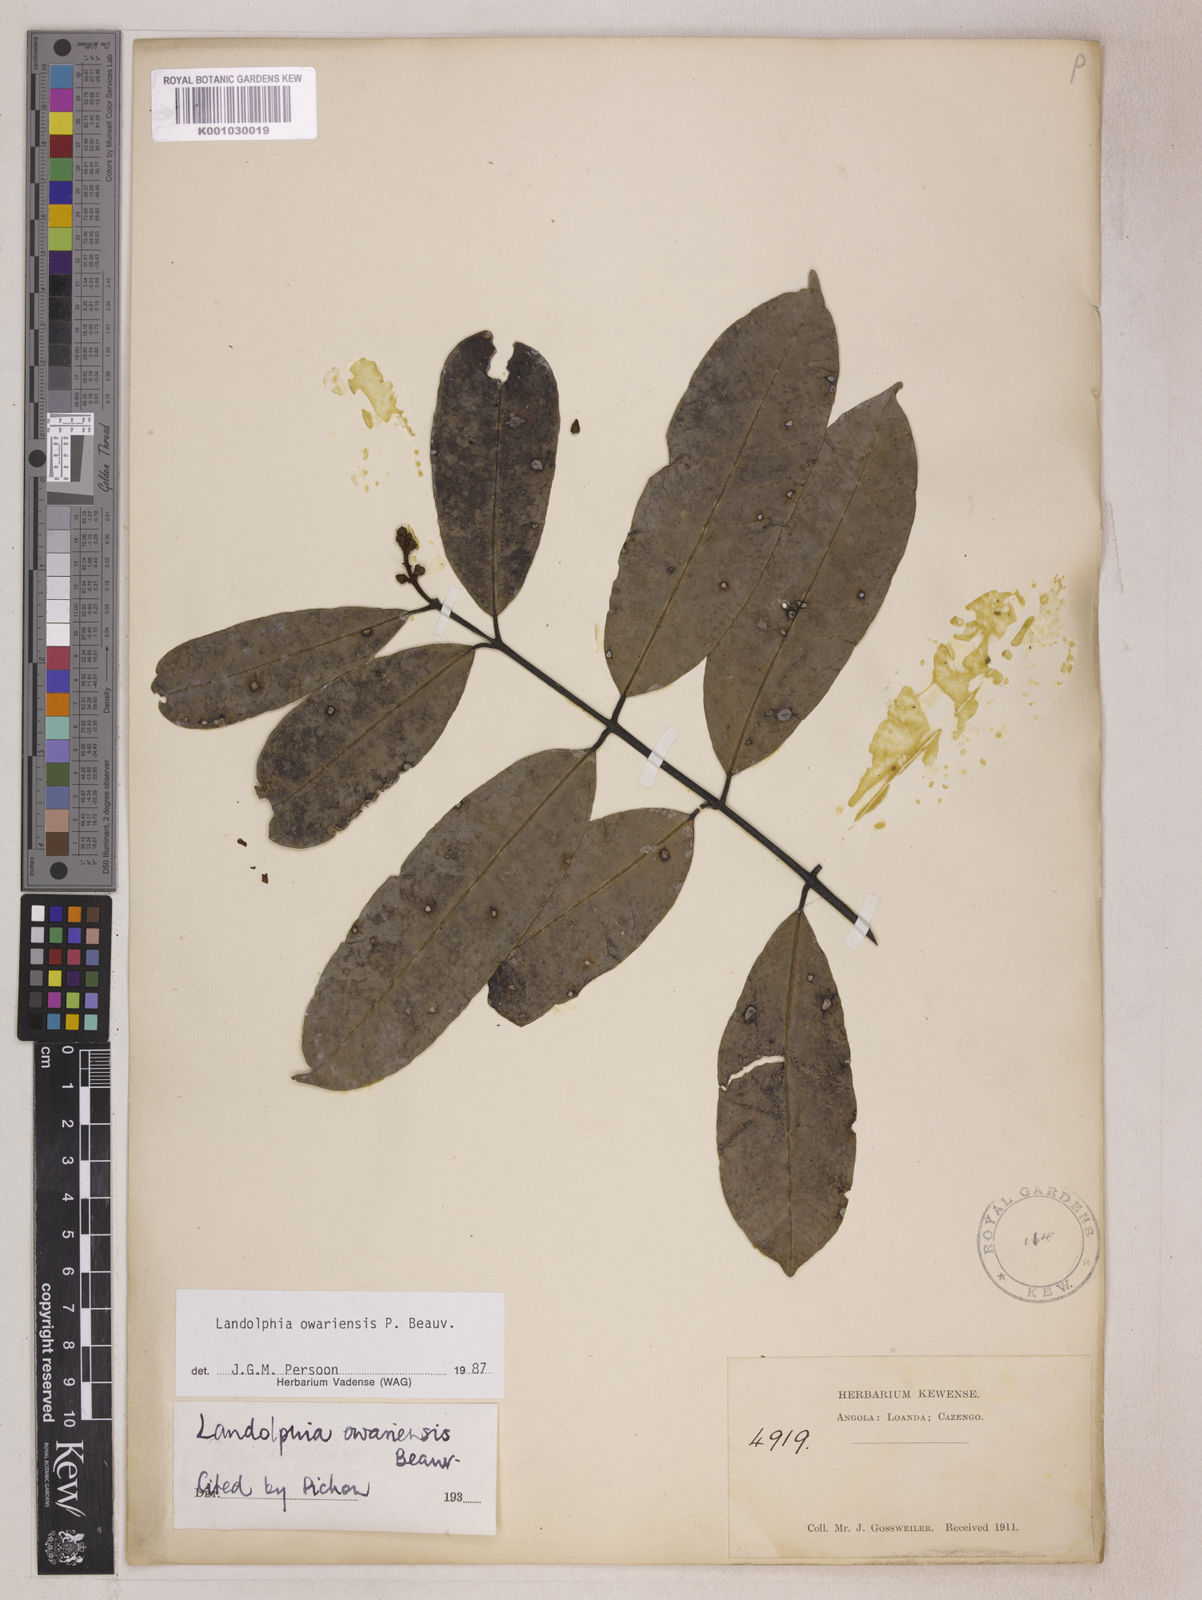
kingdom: Plantae
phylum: Tracheophyta
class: Magnoliopsida
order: Gentianales
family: Apocynaceae
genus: Landolphia
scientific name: Landolphia owariensis
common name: White-ball-rubber
